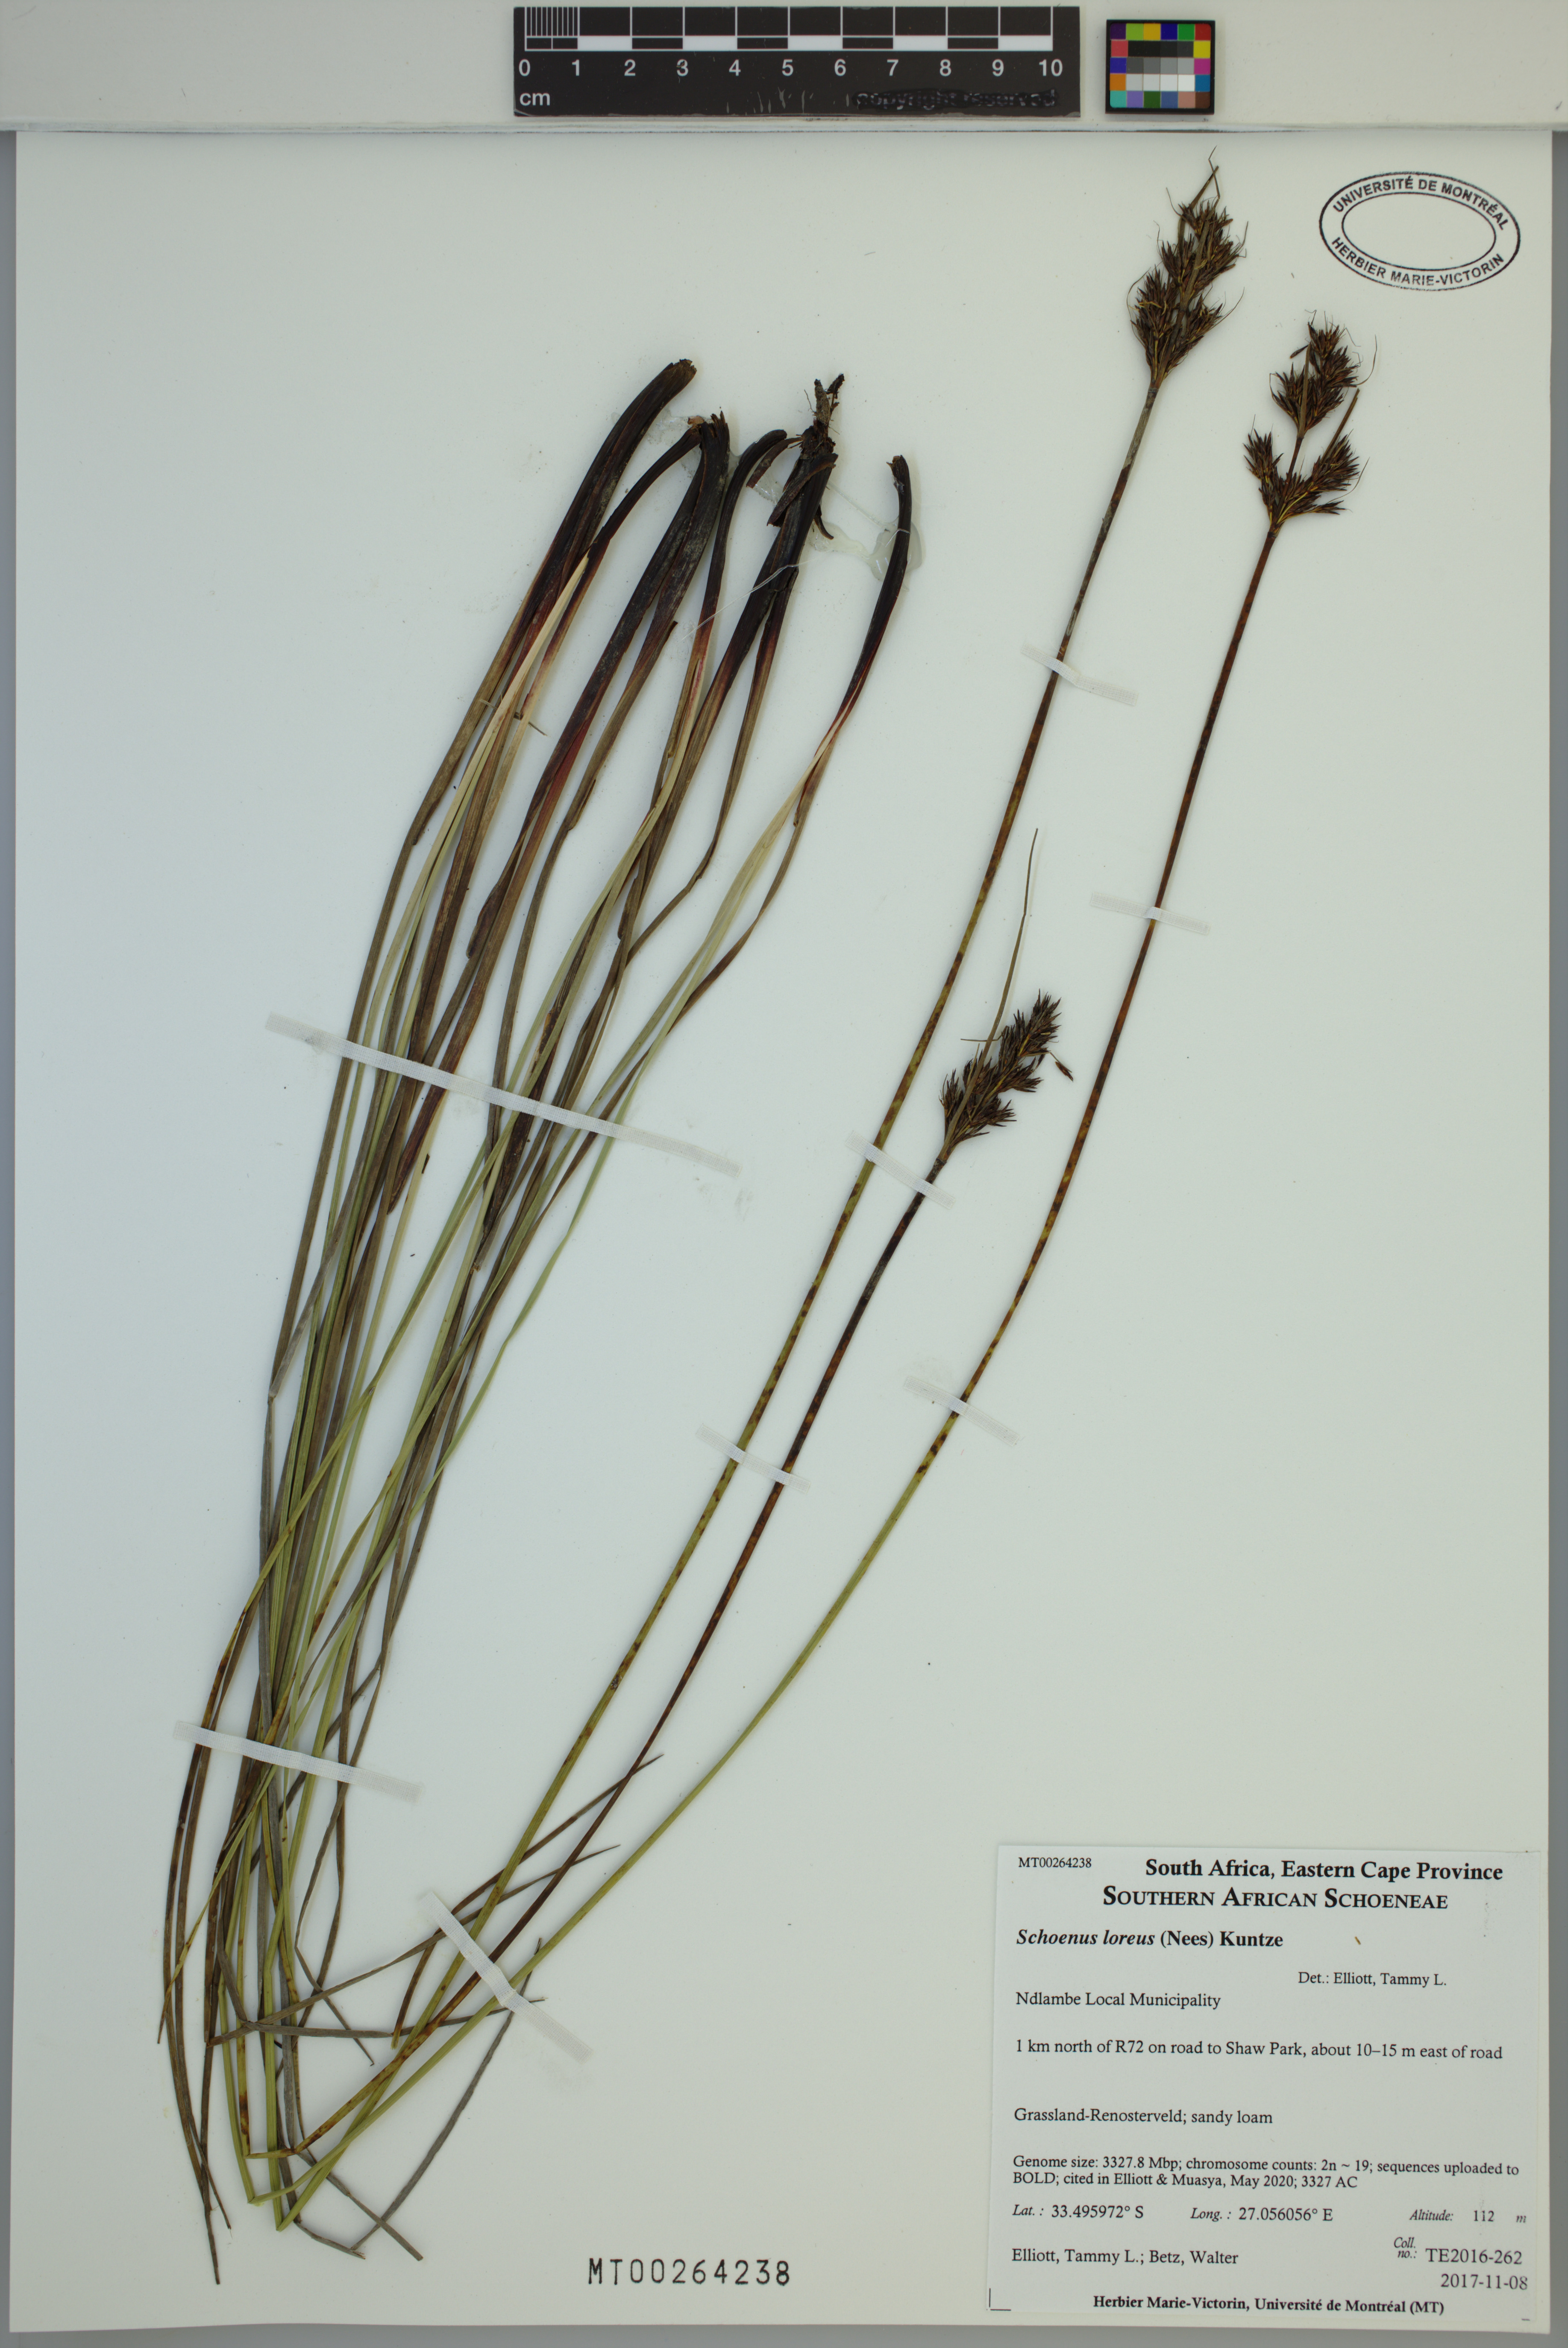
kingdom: Plantae
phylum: Tracheophyta
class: Liliopsida
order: Poales
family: Cyperaceae
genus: Schoenus
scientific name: Schoenus loreus
